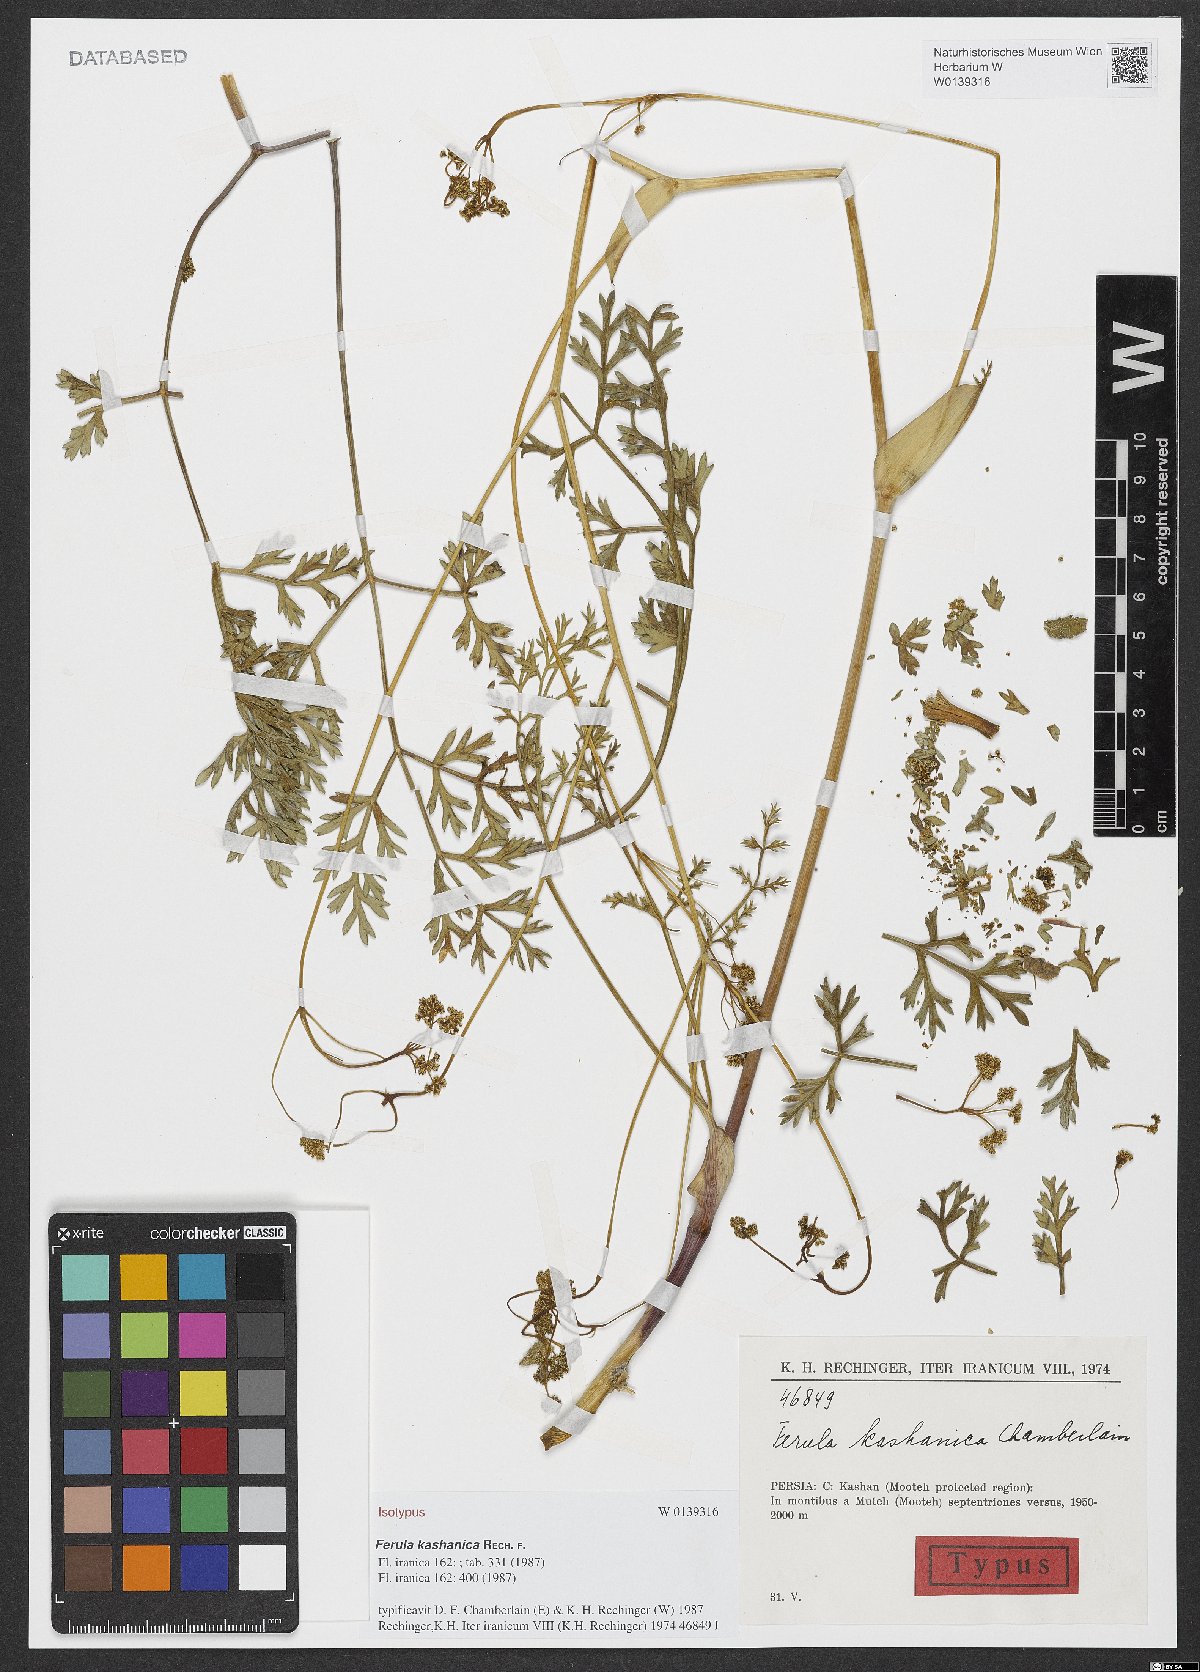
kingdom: Plantae
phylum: Tracheophyta
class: Magnoliopsida
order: Apiales
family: Apiaceae
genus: Ferula
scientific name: Ferula kashanica
